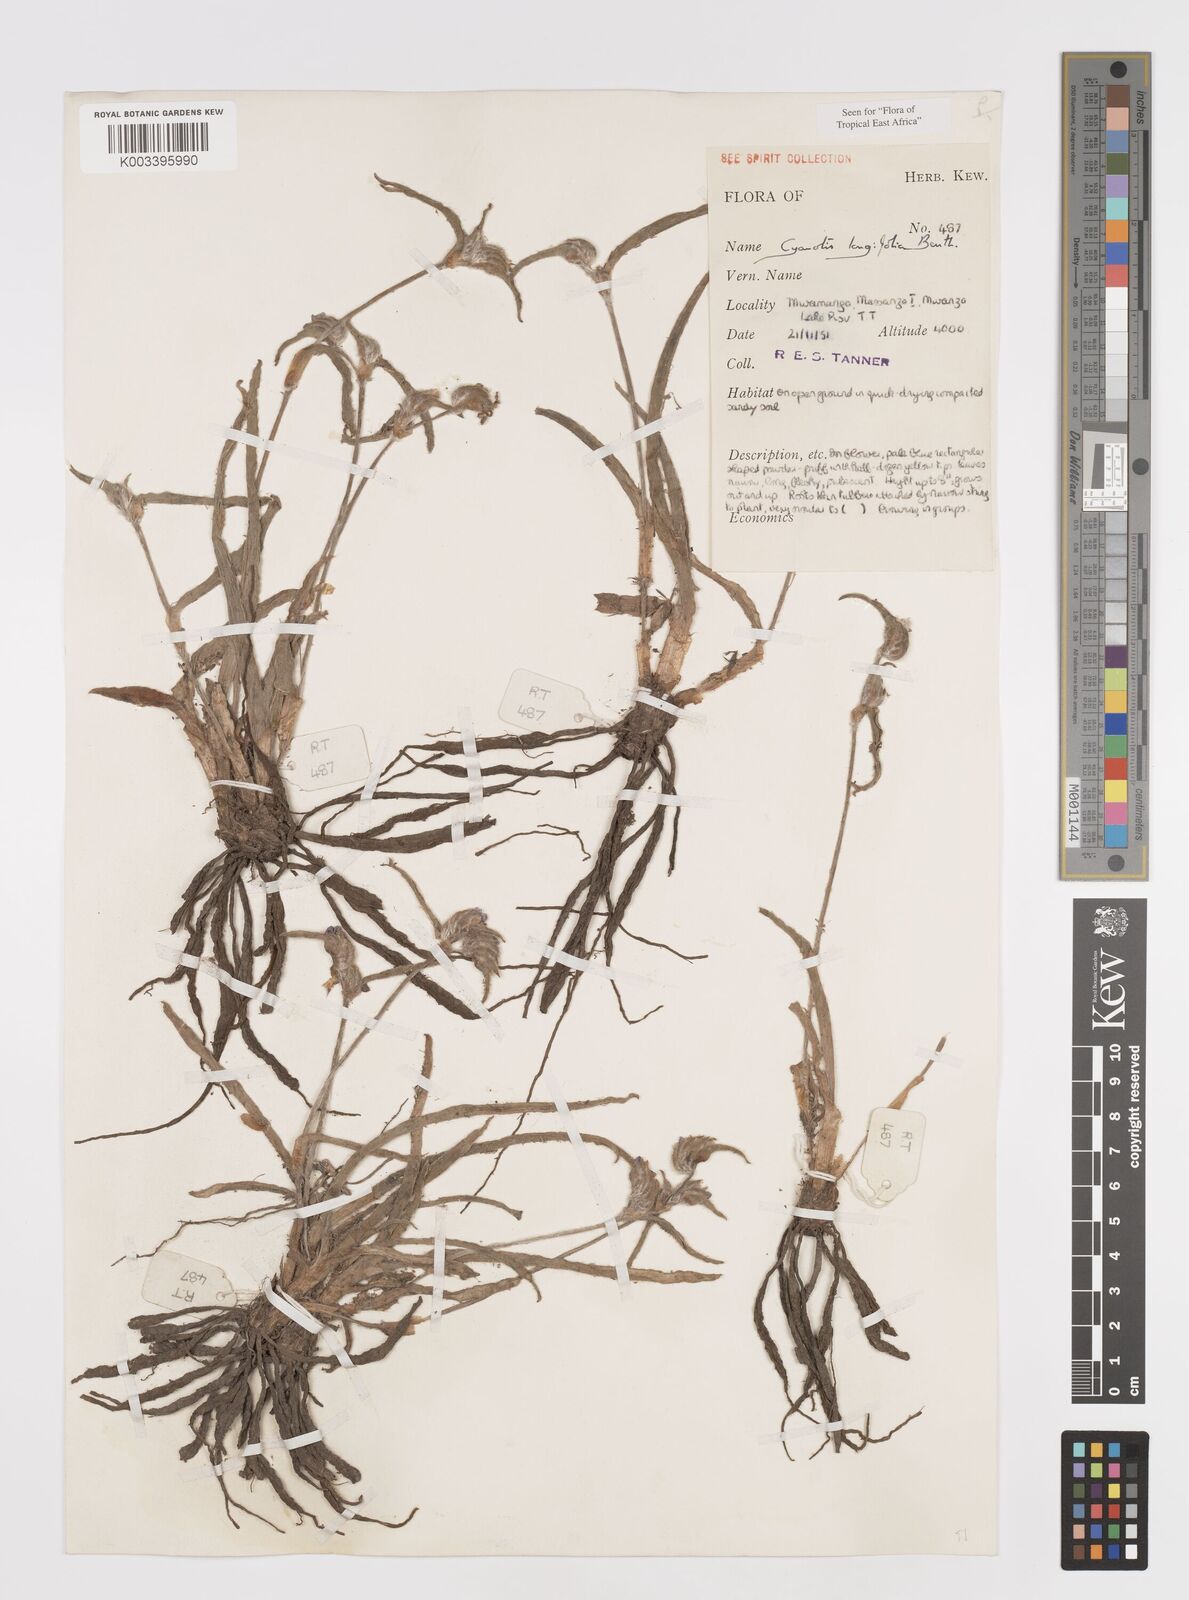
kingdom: Plantae
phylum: Tracheophyta
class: Liliopsida
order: Commelinales
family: Commelinaceae
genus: Cyanotis
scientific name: Cyanotis longifolia
